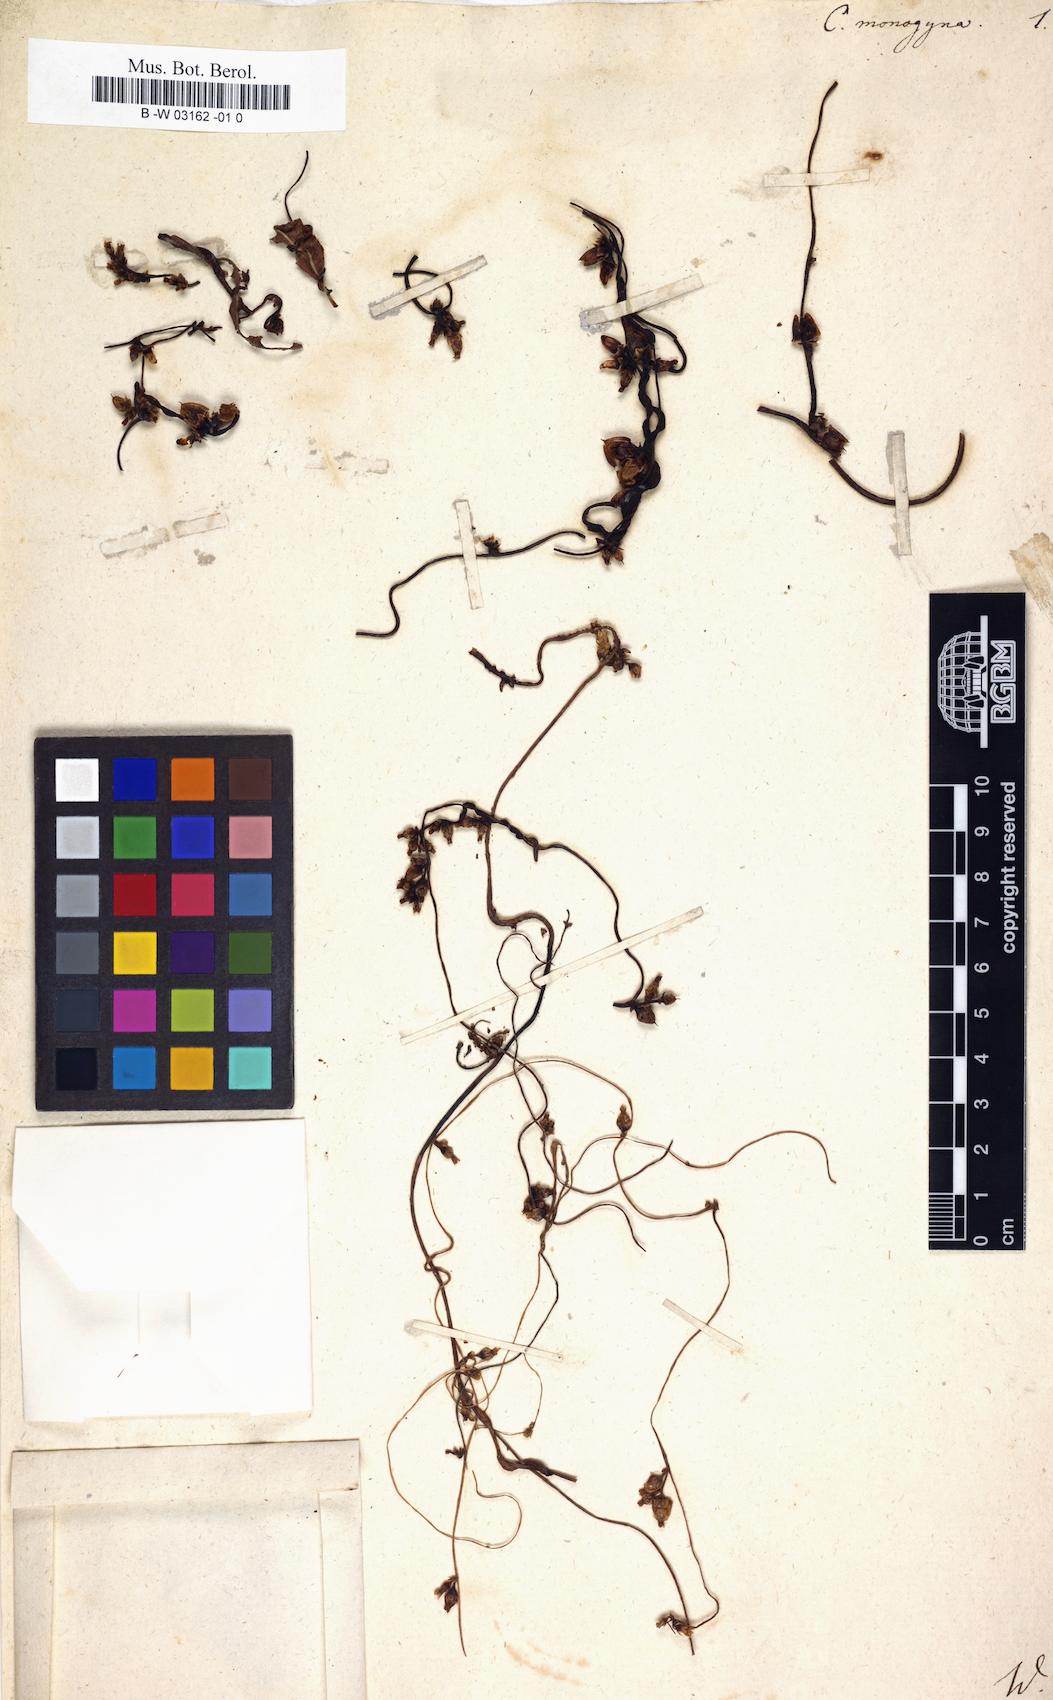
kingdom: Plantae
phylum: Tracheophyta
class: Magnoliopsida
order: Solanales
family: Convolvulaceae
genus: Cuscuta
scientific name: Cuscuta monogyna
